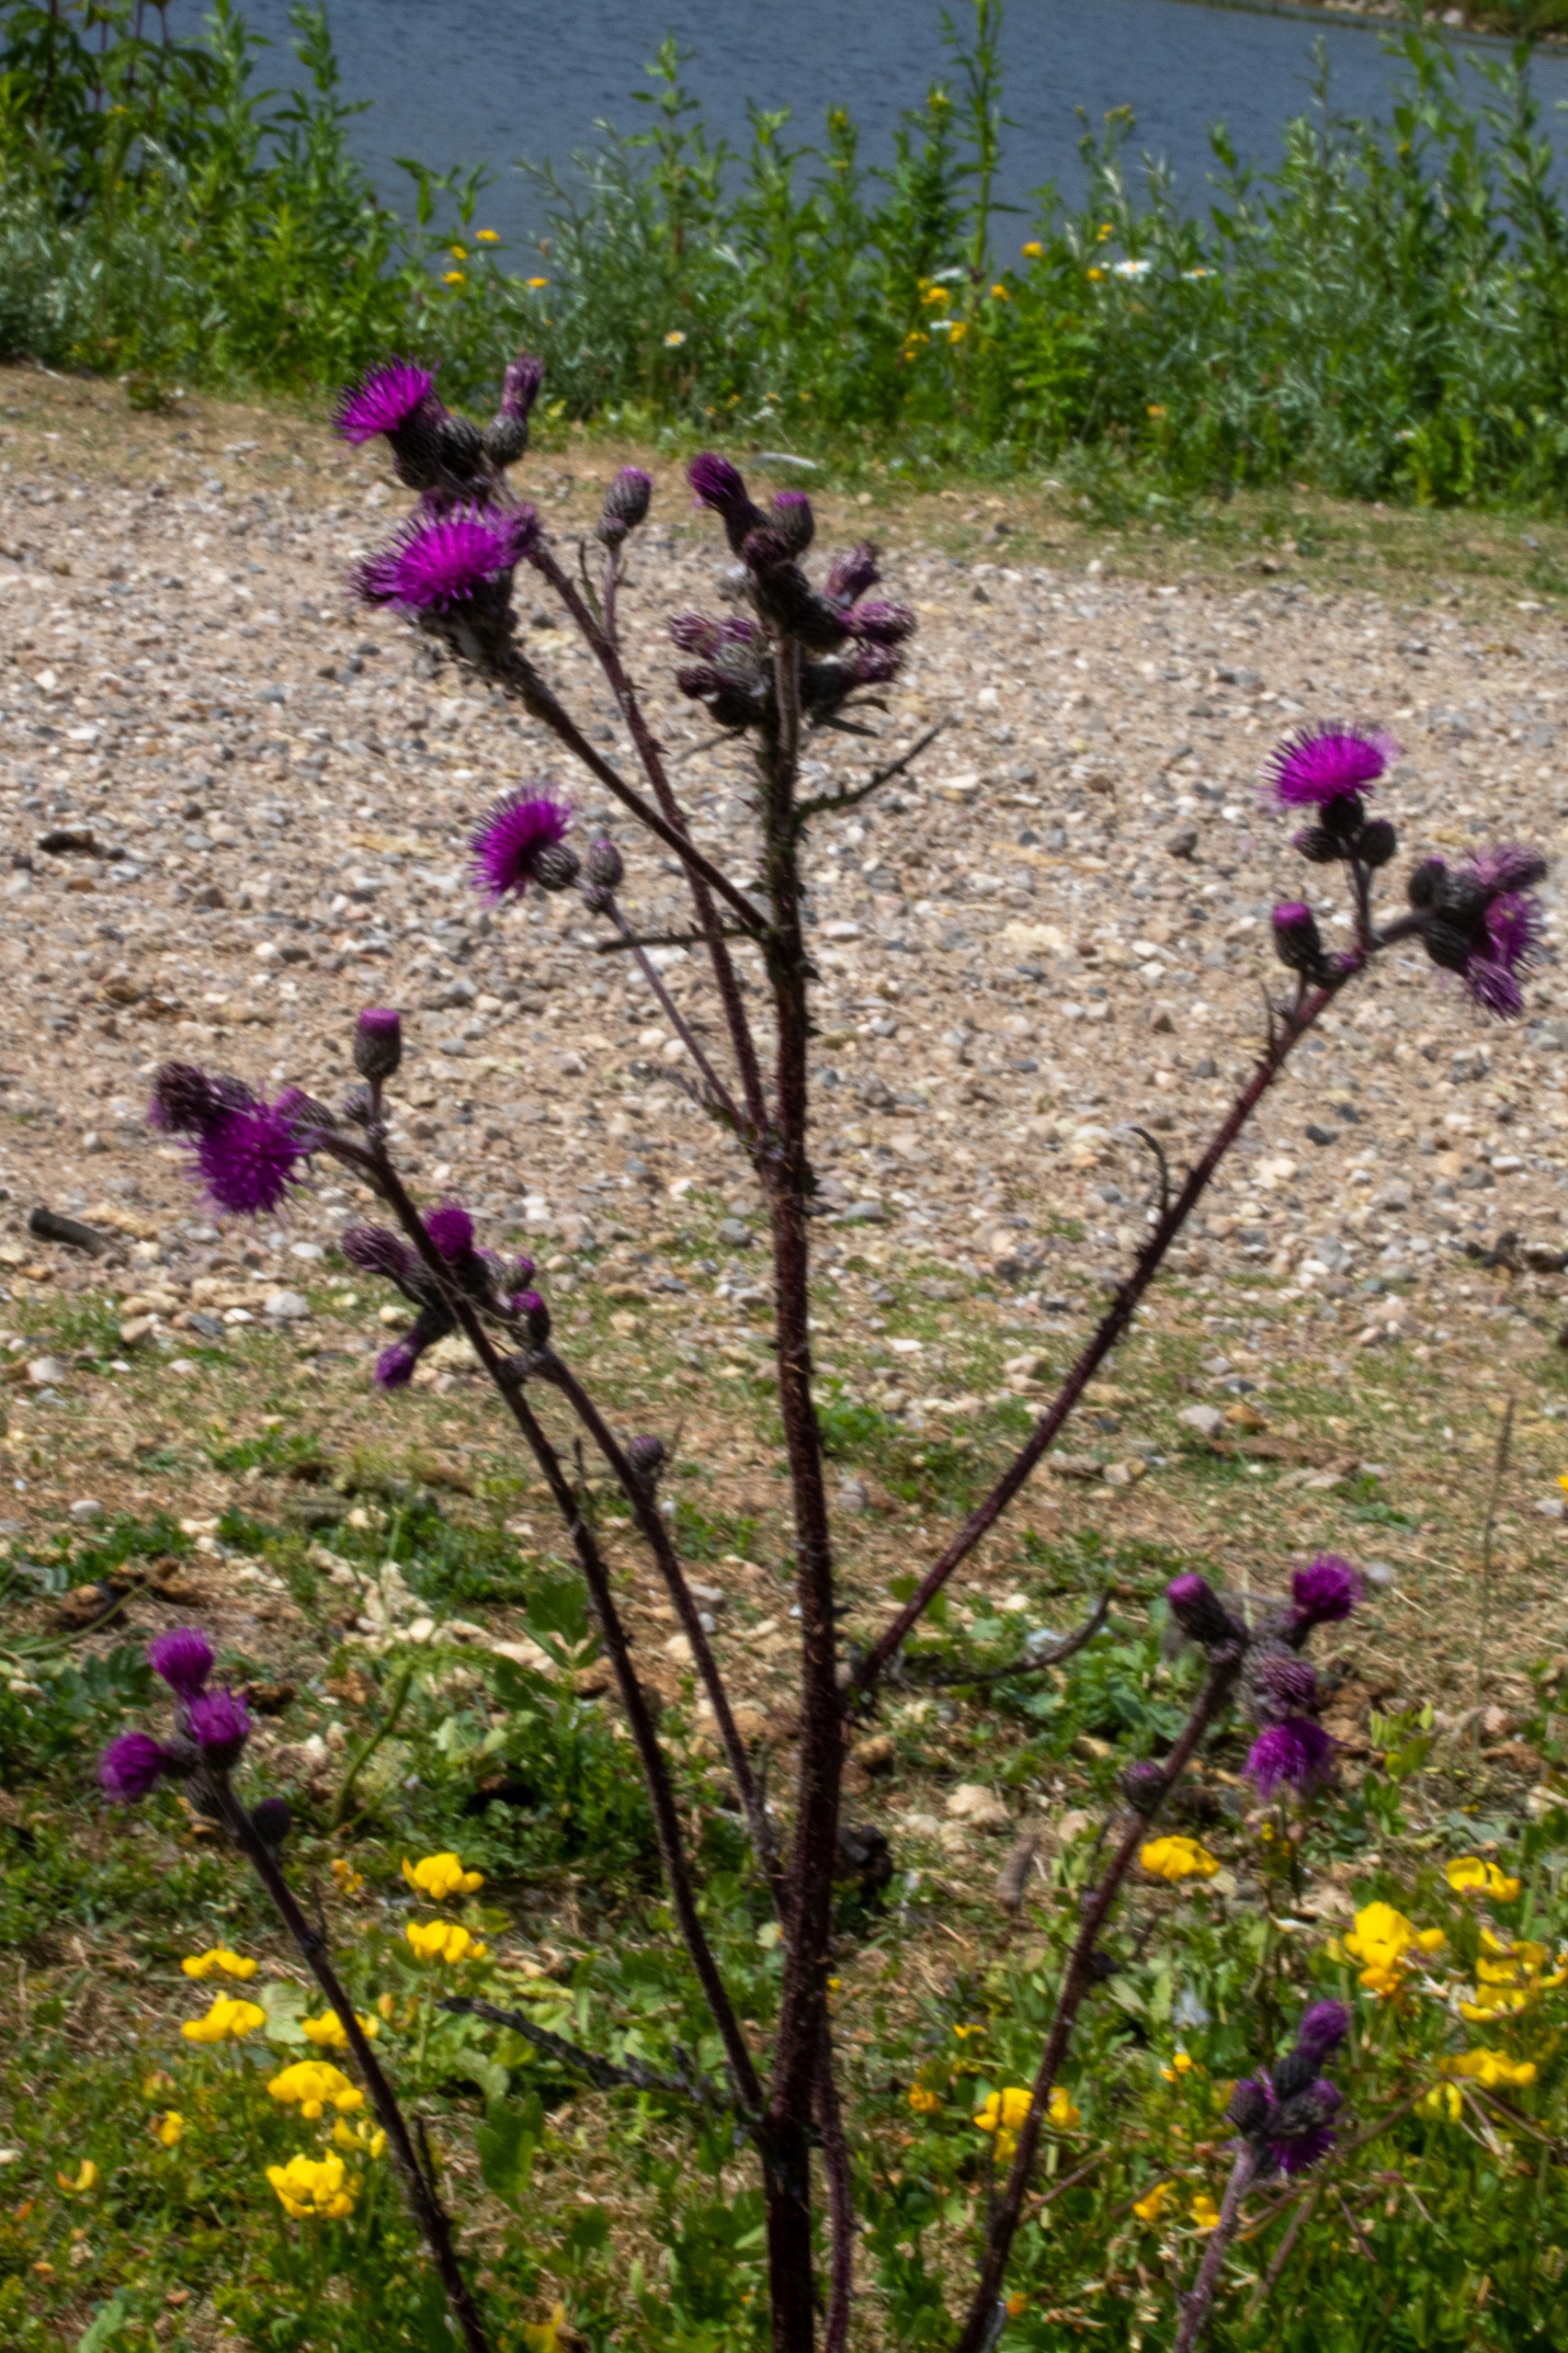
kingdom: Plantae
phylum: Tracheophyta
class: Magnoliopsida
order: Asterales
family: Asteraceae
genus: Cirsium
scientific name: Cirsium palustre
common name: Kær-tidsel
